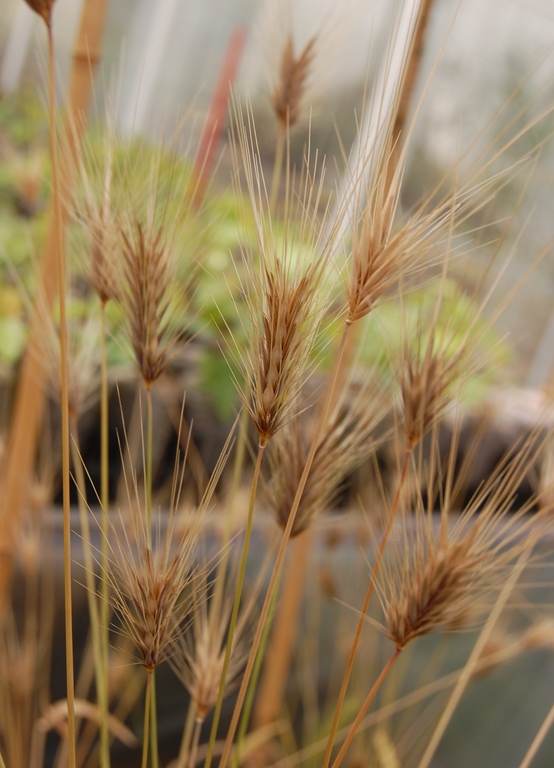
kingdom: Plantae
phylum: Tracheophyta
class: Liliopsida
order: Poales
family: Poaceae
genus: Hordeum
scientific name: Hordeum murinum
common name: Wall barley
